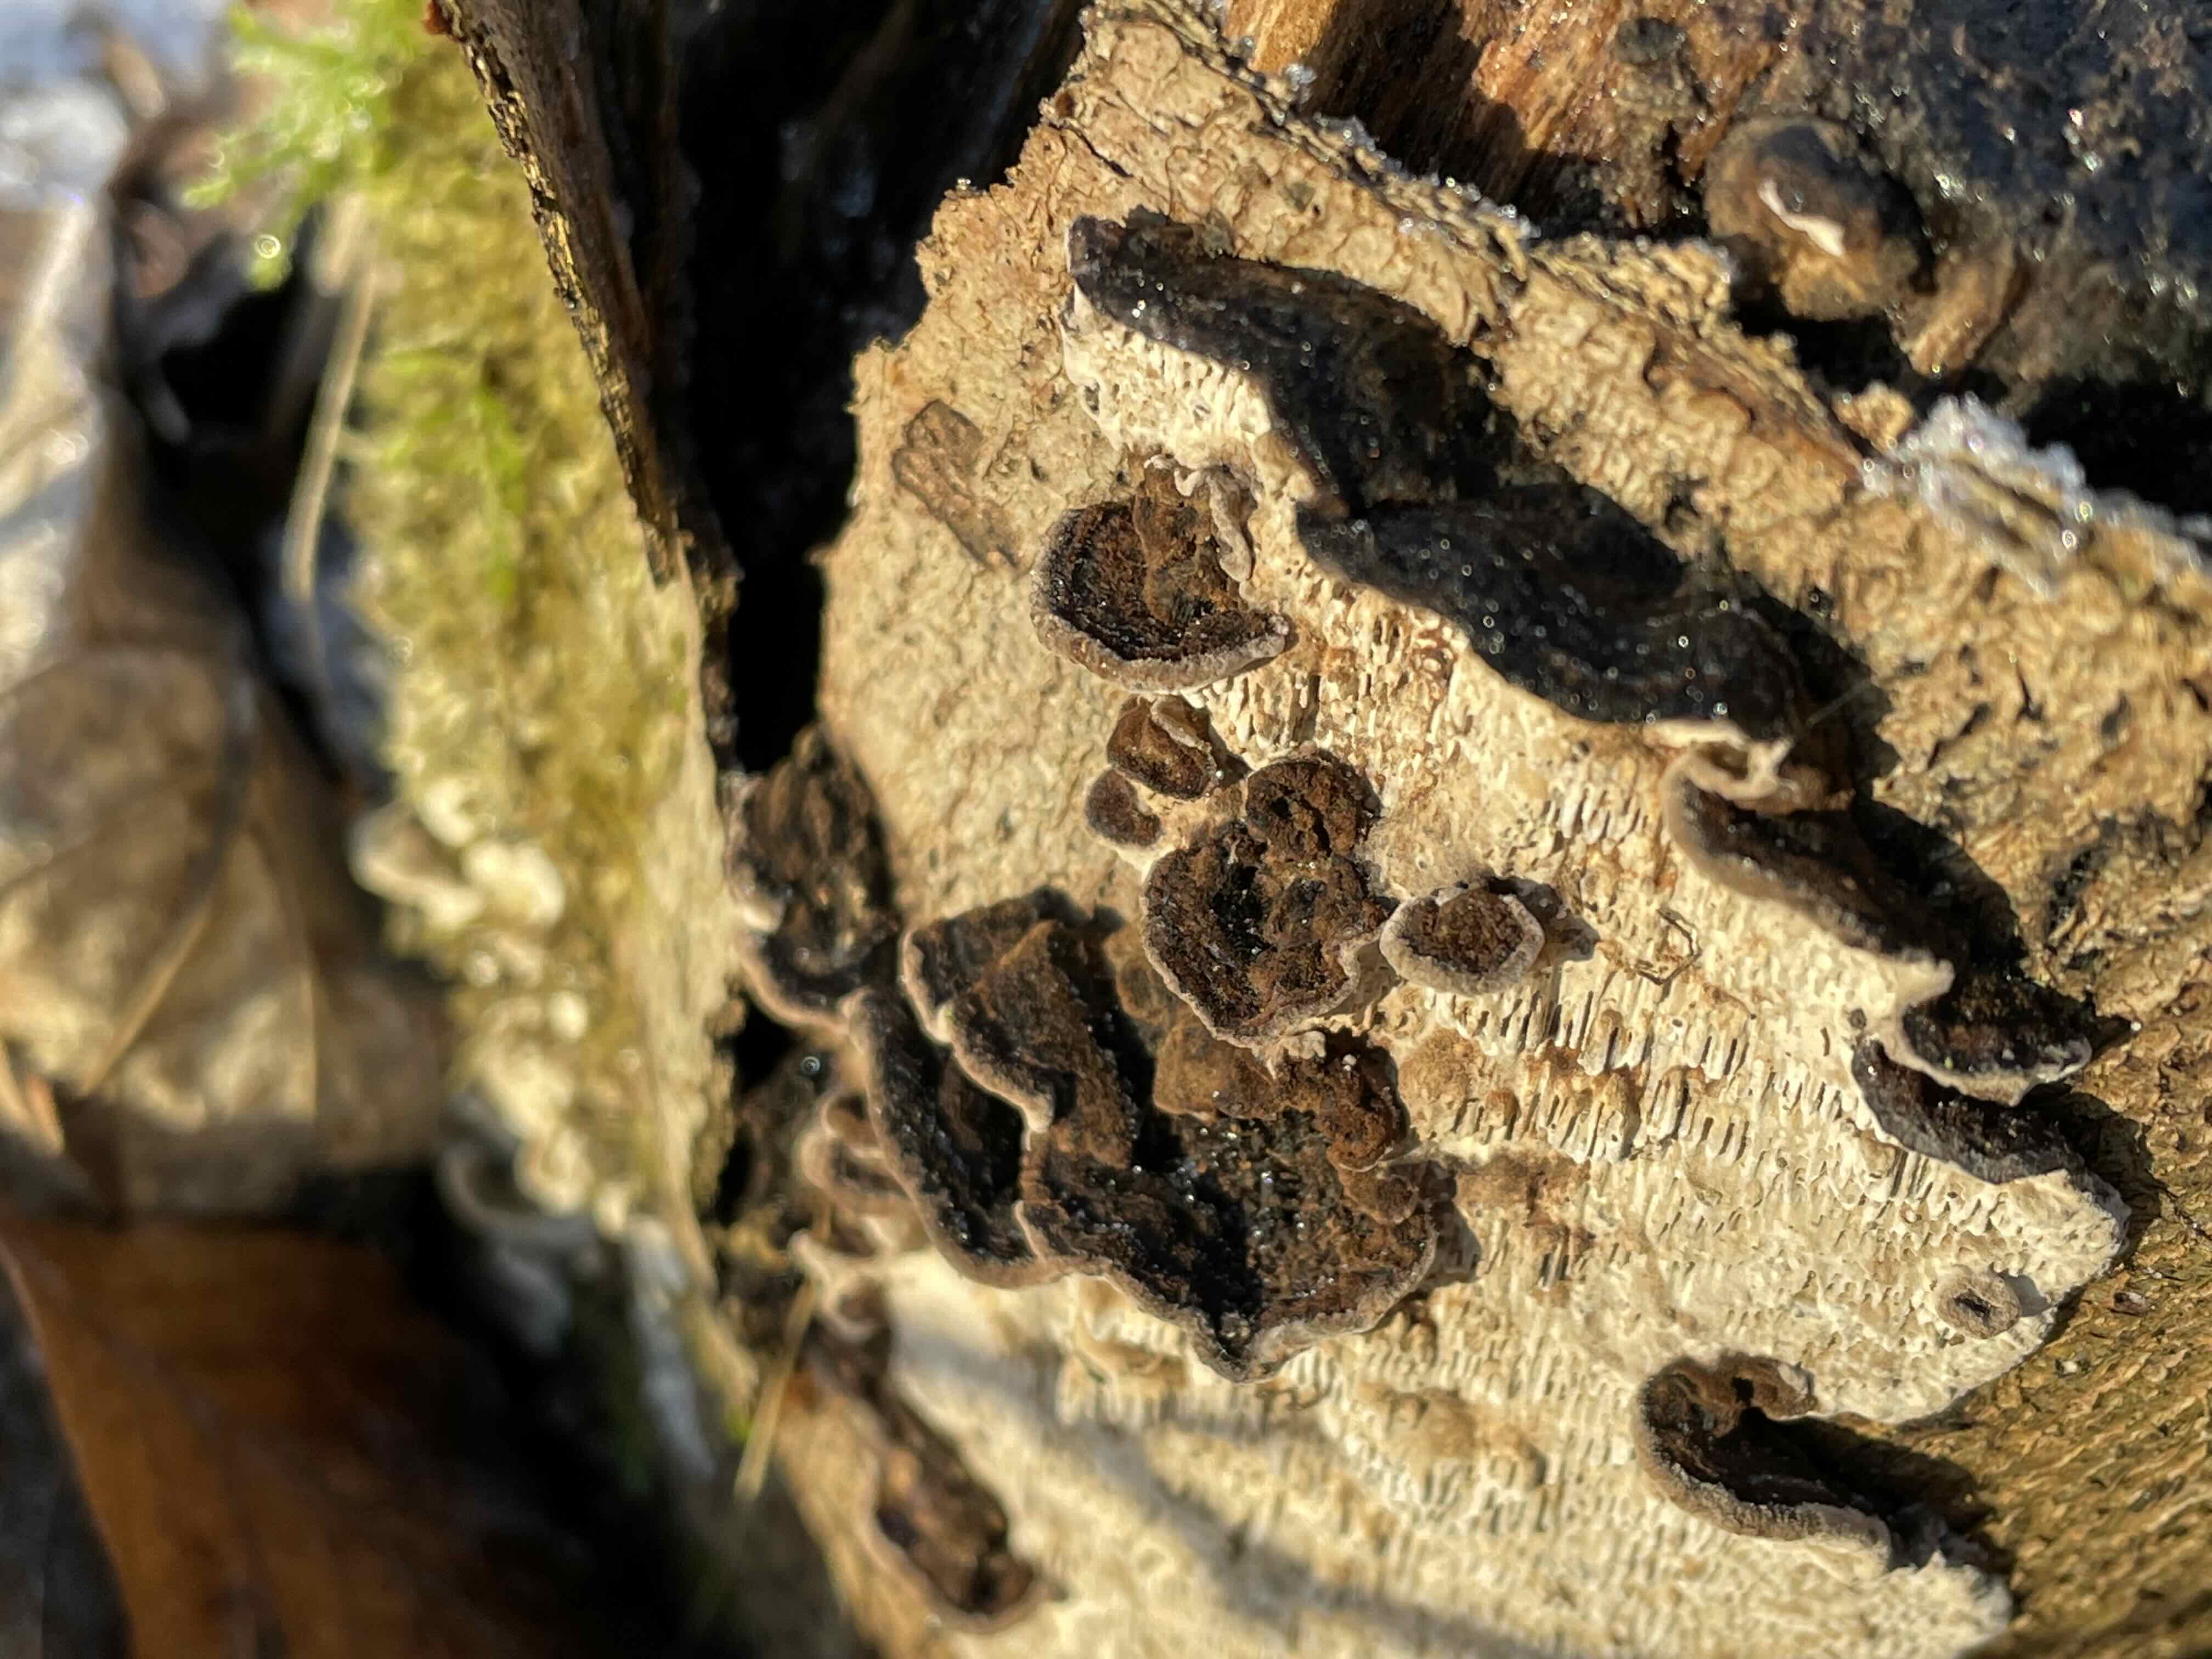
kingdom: Fungi
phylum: Basidiomycota
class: Agaricomycetes
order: Polyporales
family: Polyporaceae
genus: Podofomes
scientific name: Podofomes mollis
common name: blød begporesvamp
